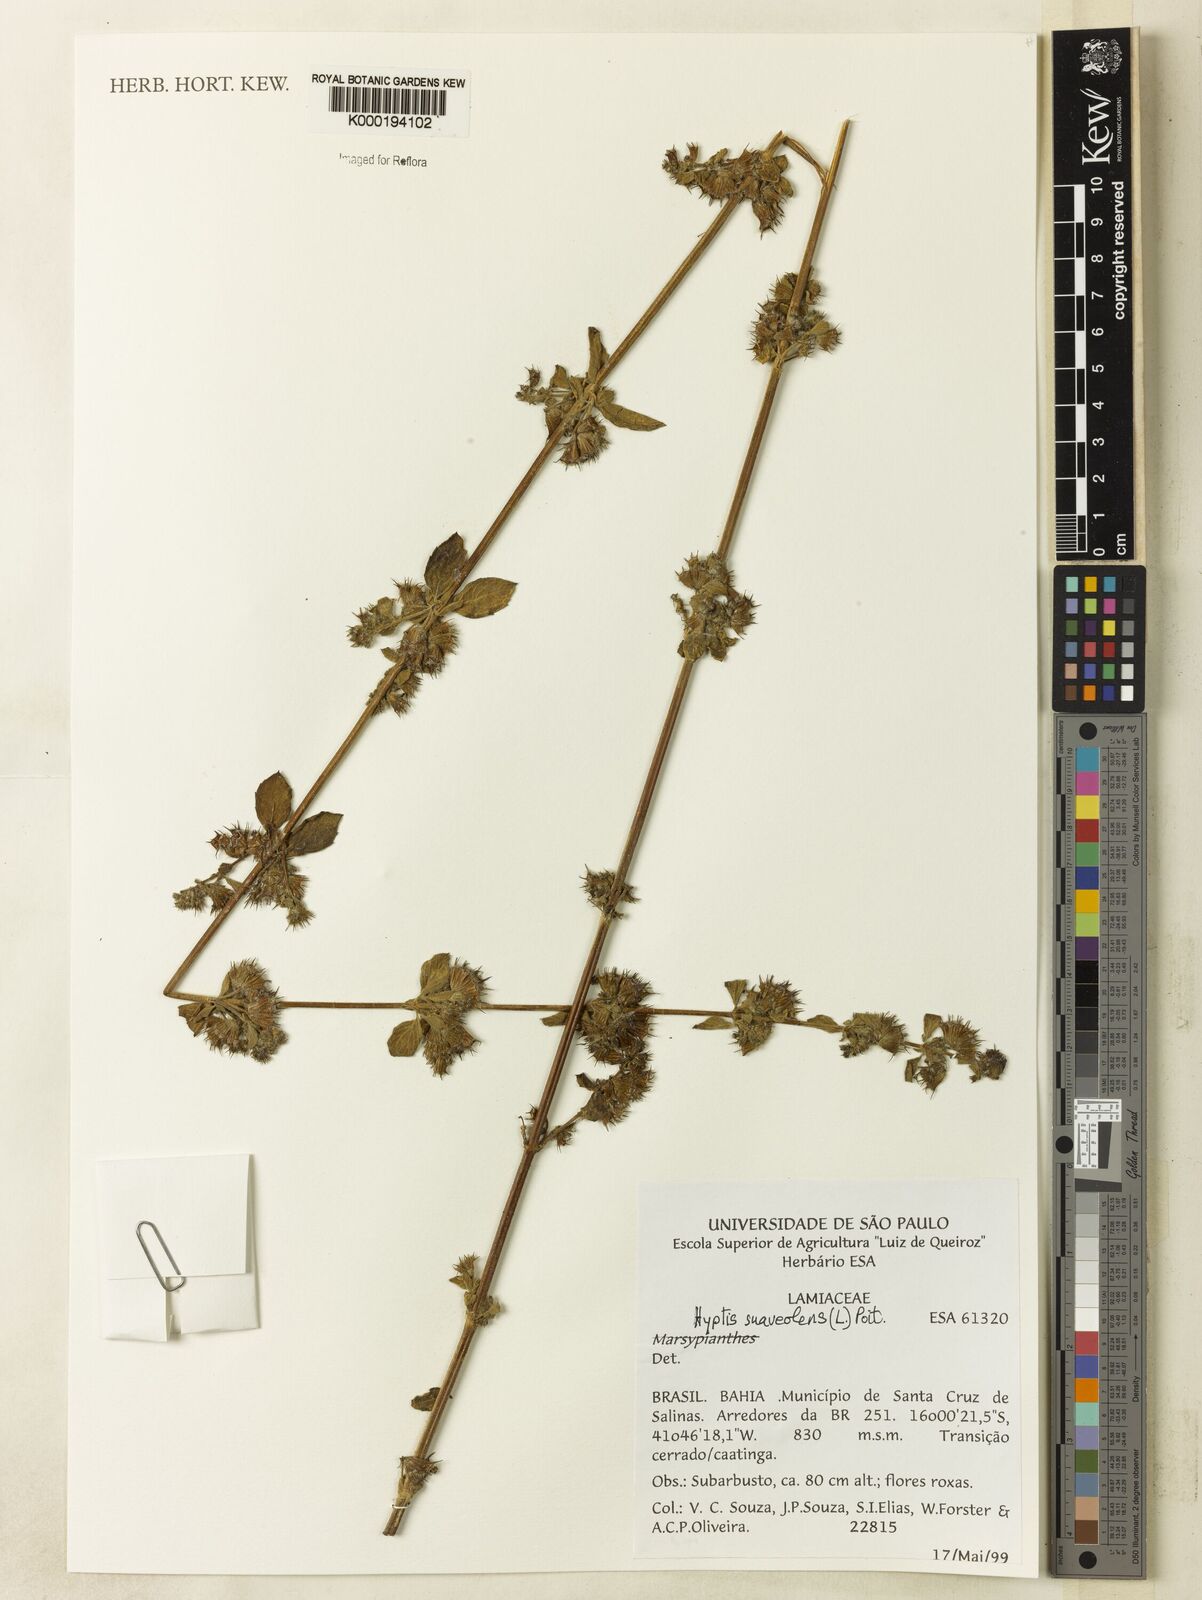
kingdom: Plantae
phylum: Tracheophyta
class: Magnoliopsida
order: Lamiales
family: Lamiaceae
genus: Mesosphaerum
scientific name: Mesosphaerum suaveolens
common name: Pignut
